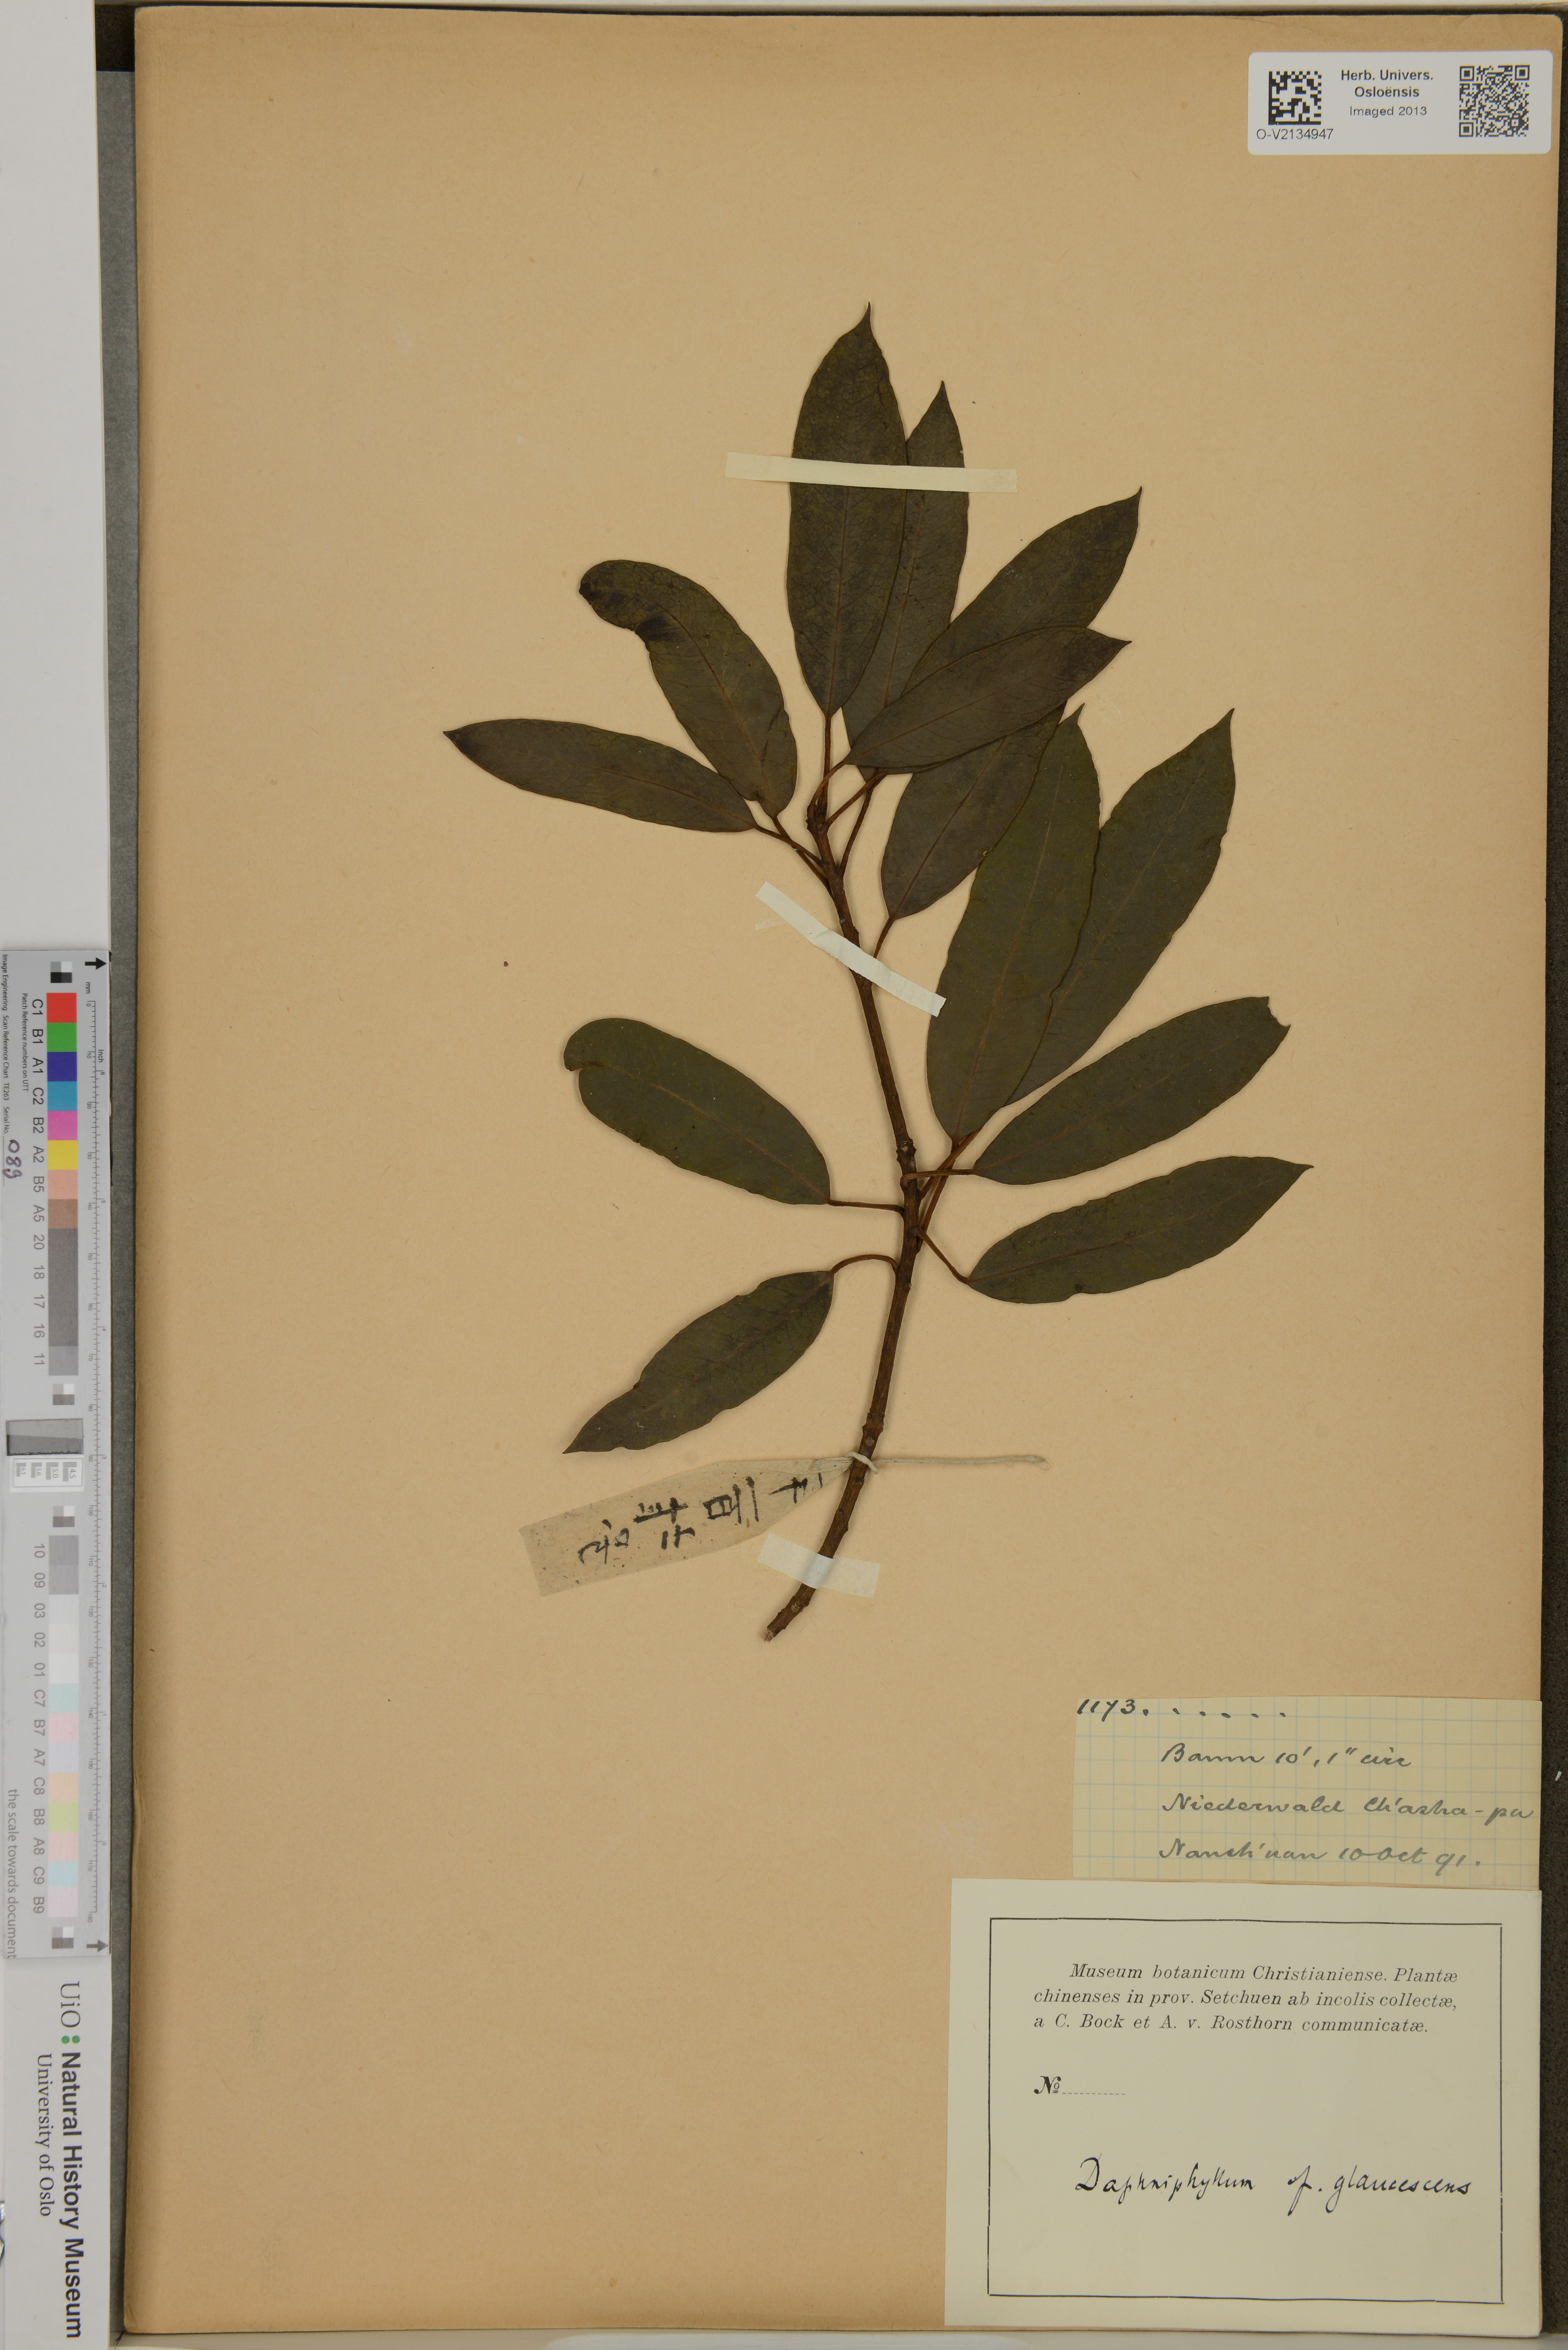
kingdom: Plantae
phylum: Tracheophyta
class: Magnoliopsida
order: Saxifragales
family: Daphniphyllaceae
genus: Daphniphyllum
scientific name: Daphniphyllum
